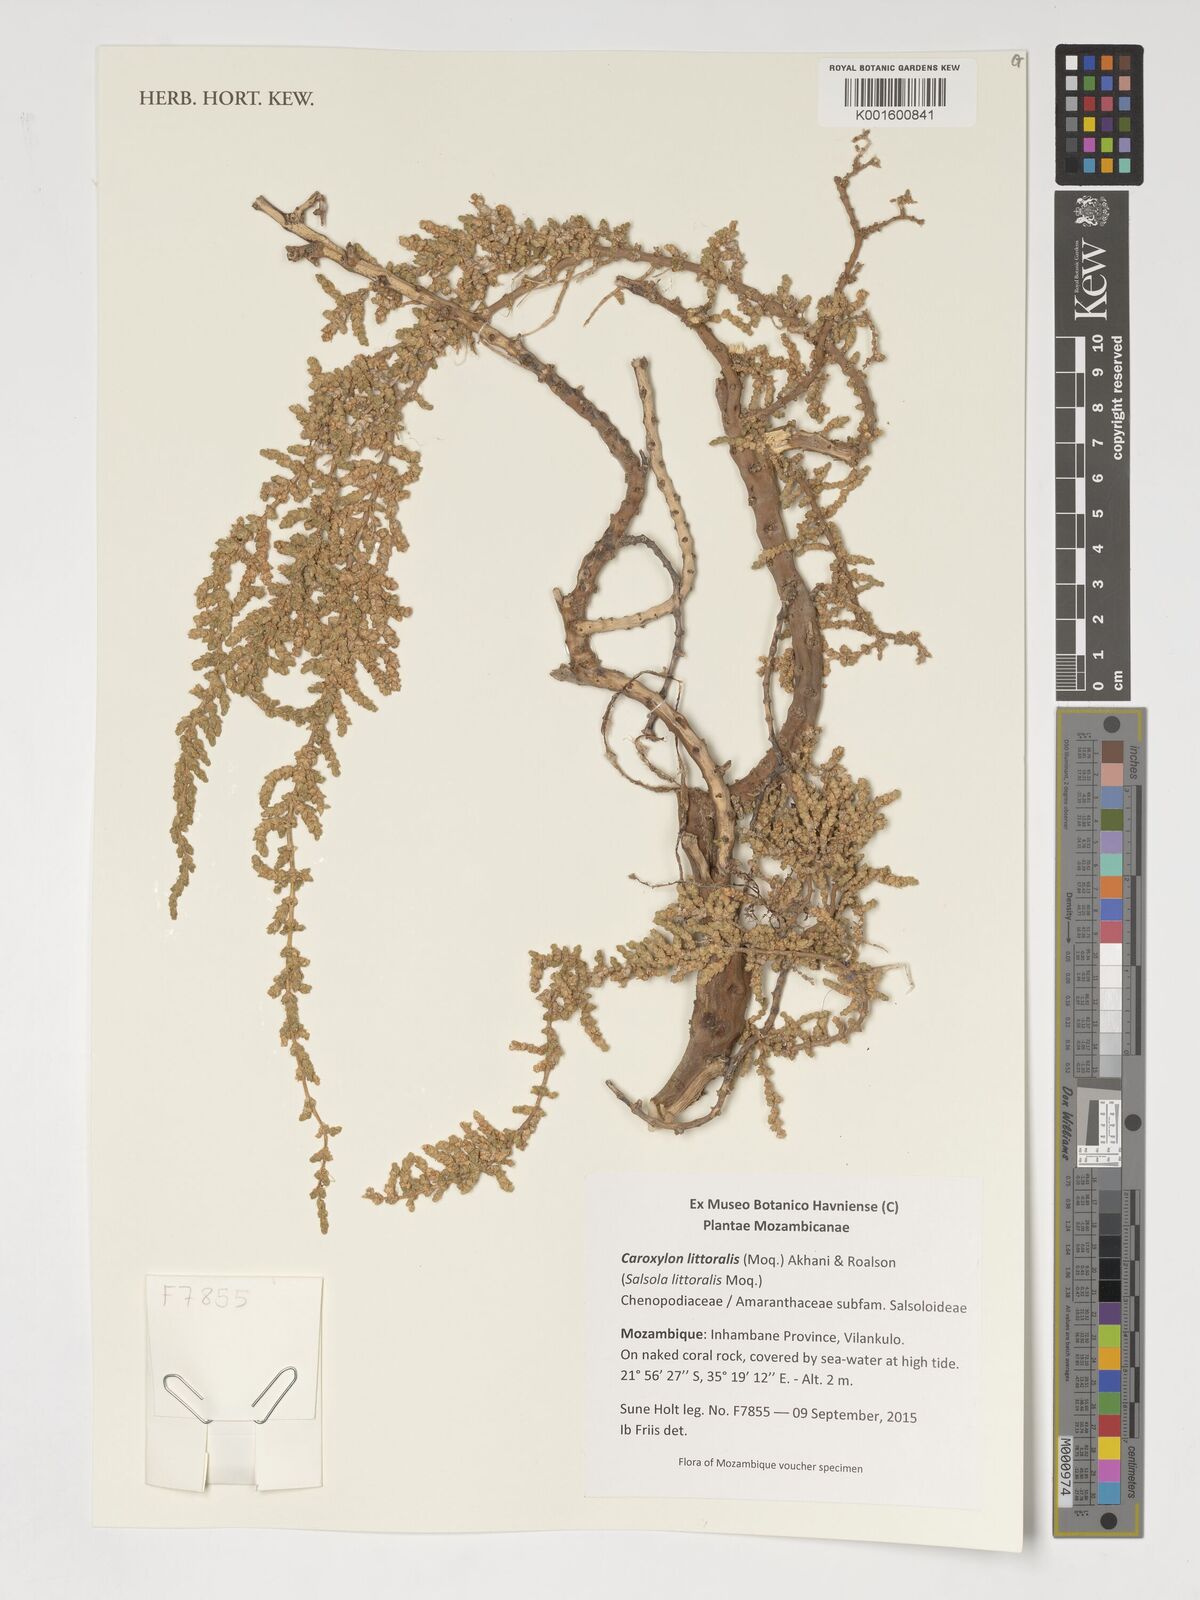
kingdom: Plantae
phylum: Tracheophyta
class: Magnoliopsida
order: Caryophyllales
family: Amaranthaceae
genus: Caroxylon
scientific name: Caroxylon littoralis
